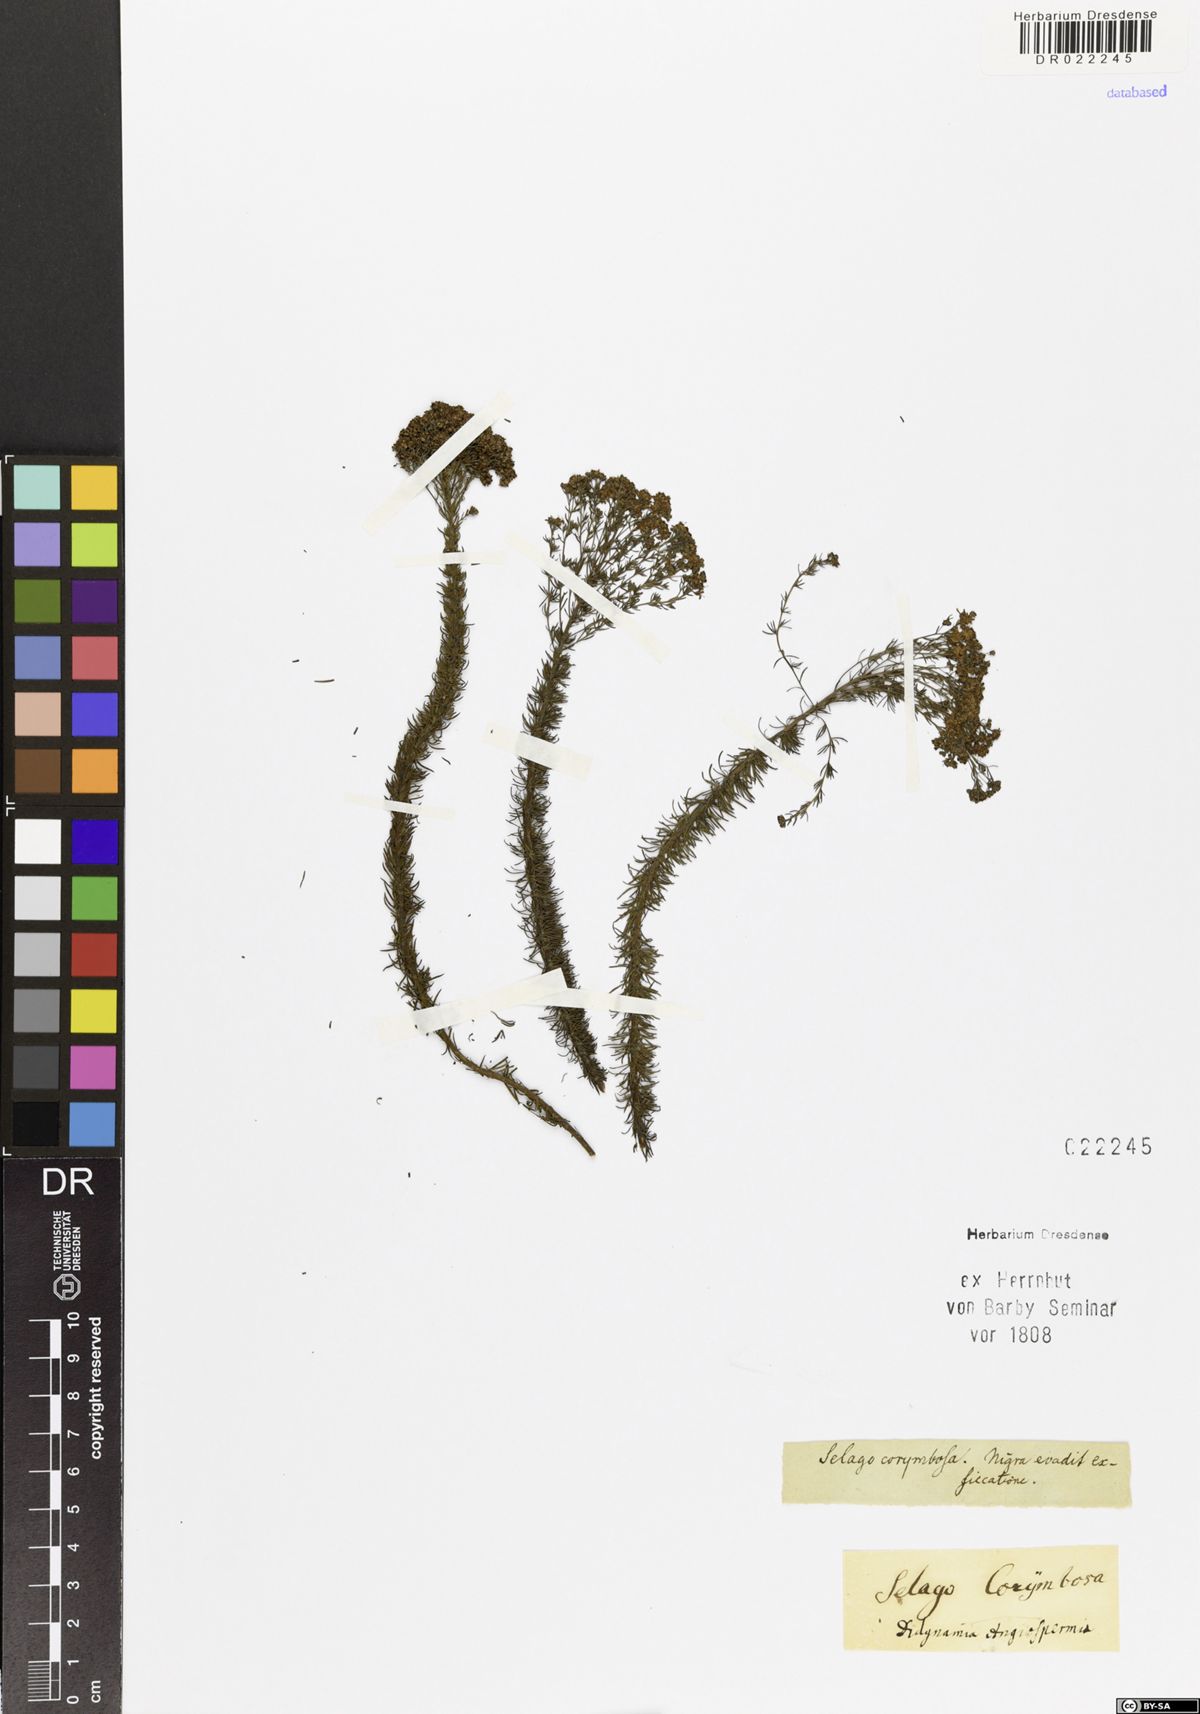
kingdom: Plantae
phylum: Tracheophyta
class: Magnoliopsida
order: Lamiales
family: Scrophulariaceae
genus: Selago
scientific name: Selago corymbosa
